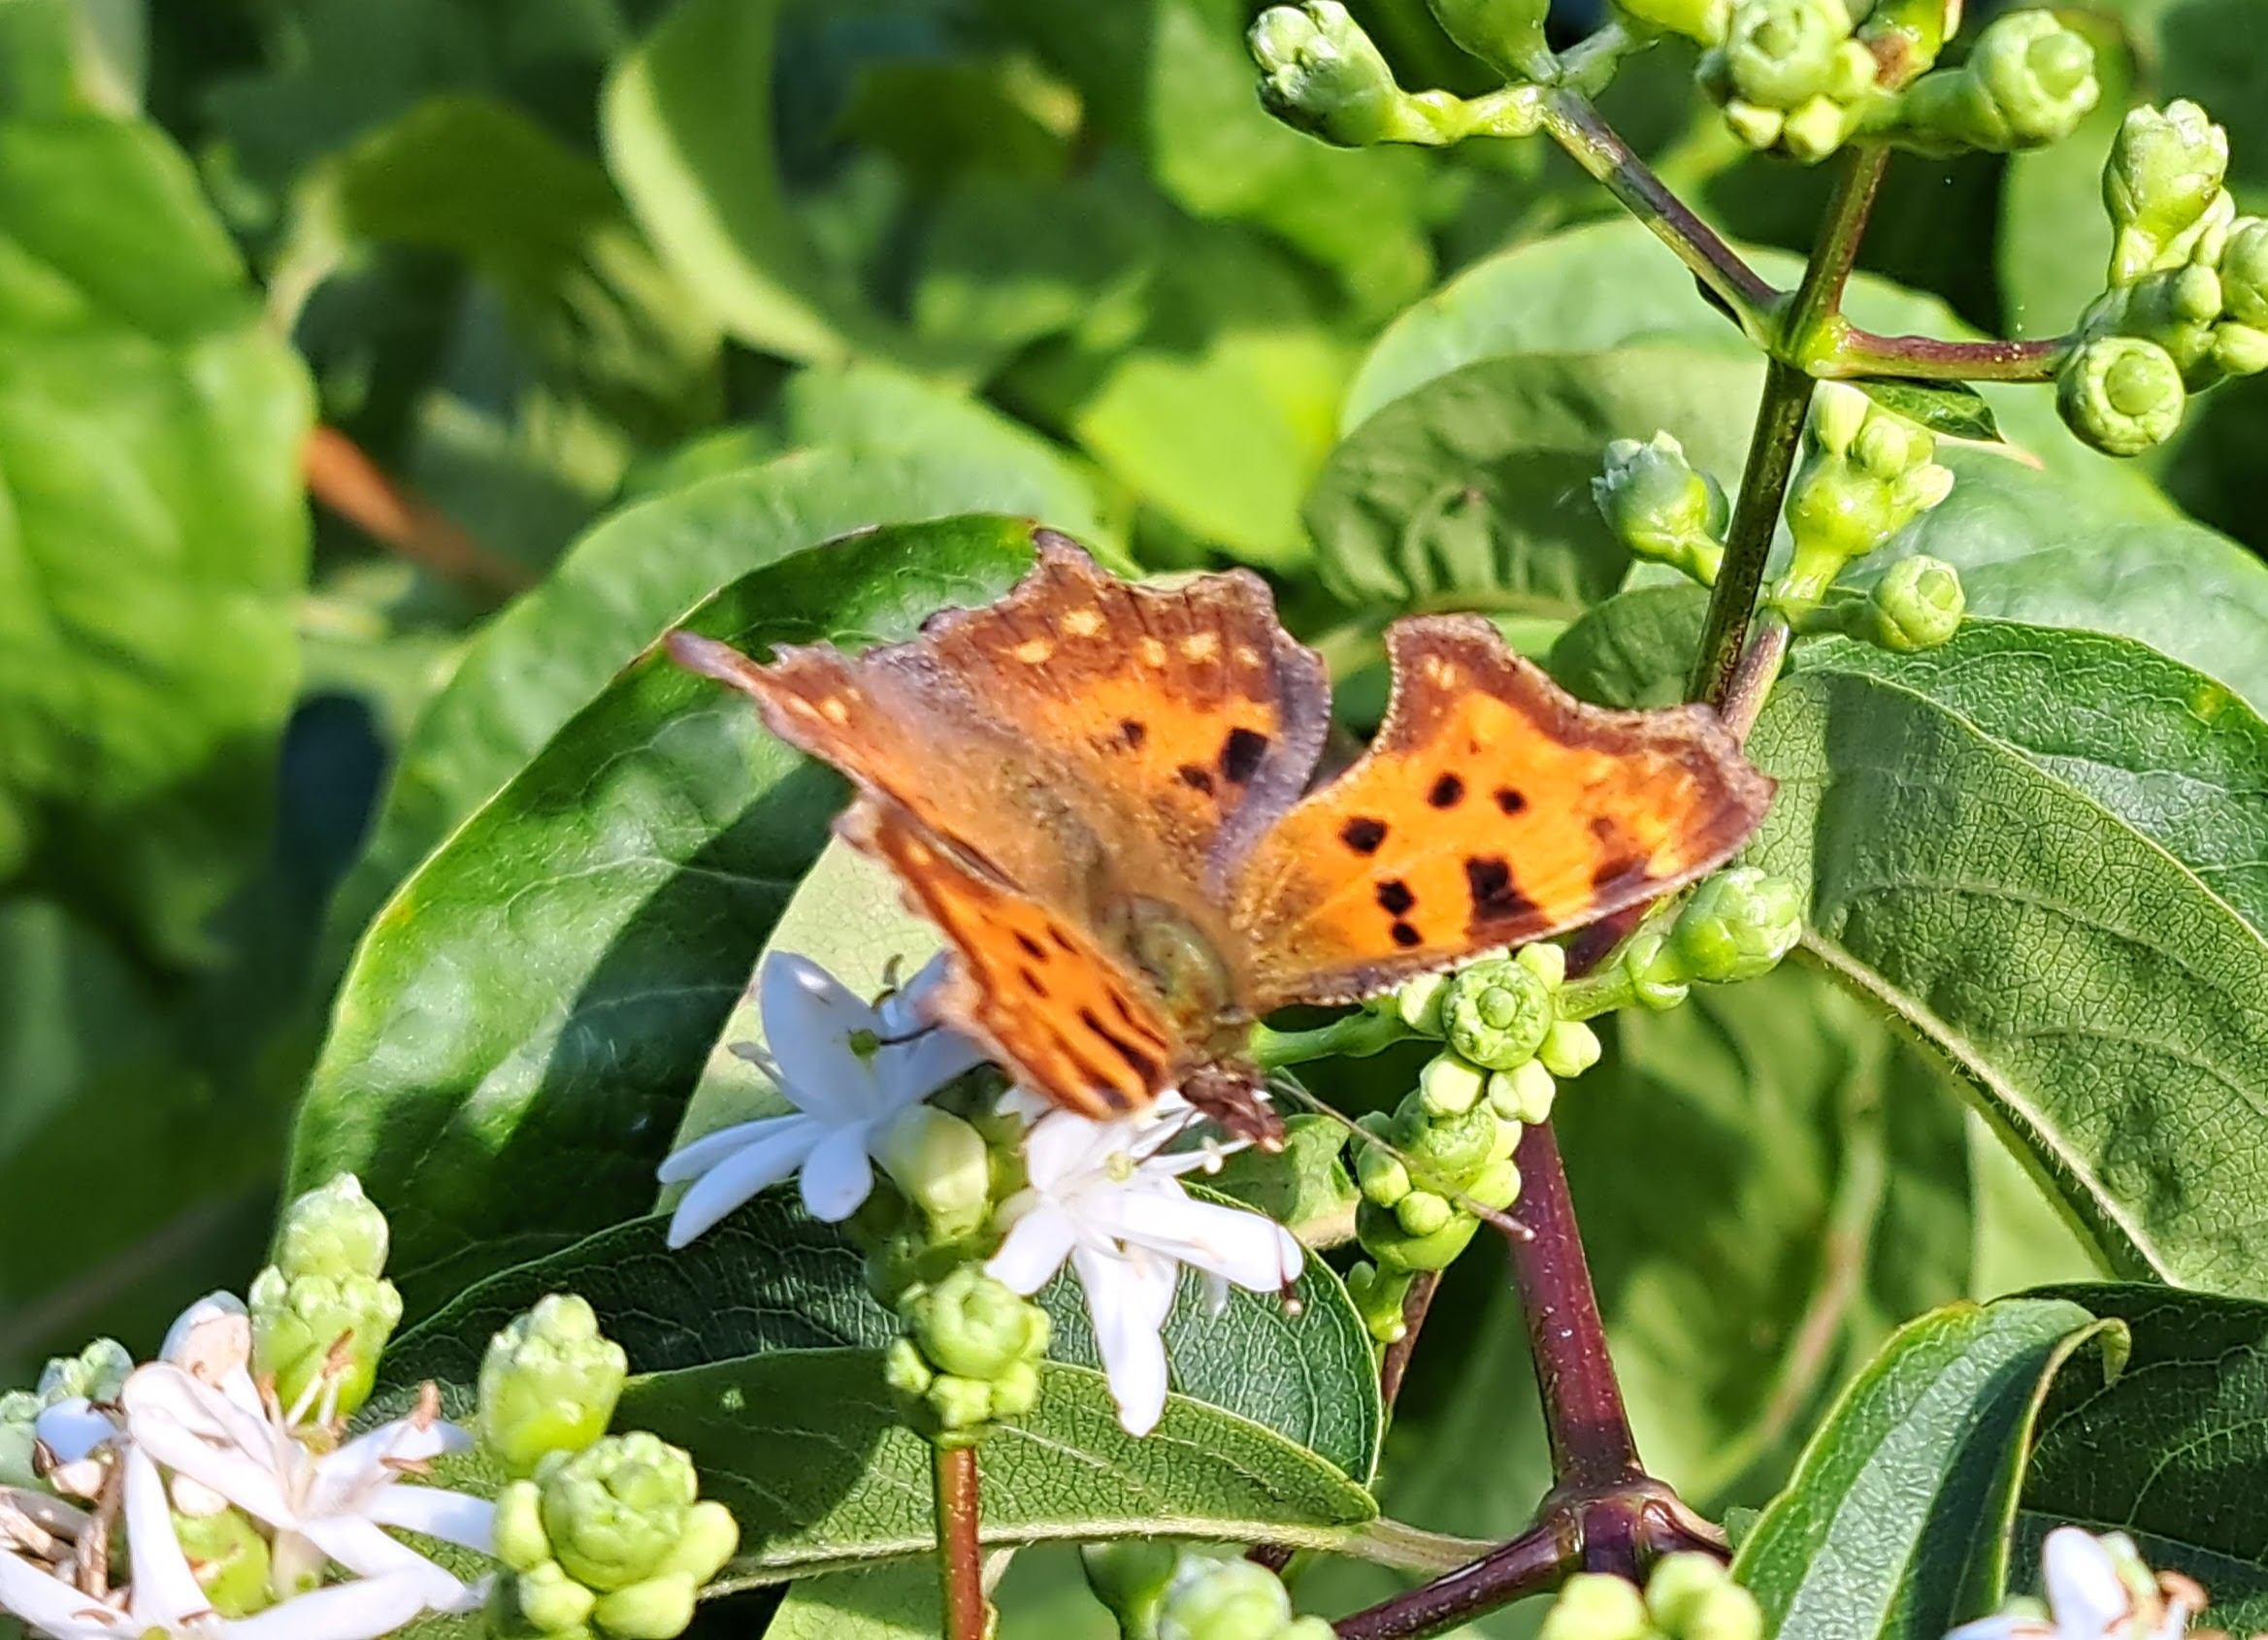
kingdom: Animalia
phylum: Arthropoda
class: Insecta
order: Lepidoptera
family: Nymphalidae
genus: Polygonia
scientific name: Polygonia c-album
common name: Det hvide C
